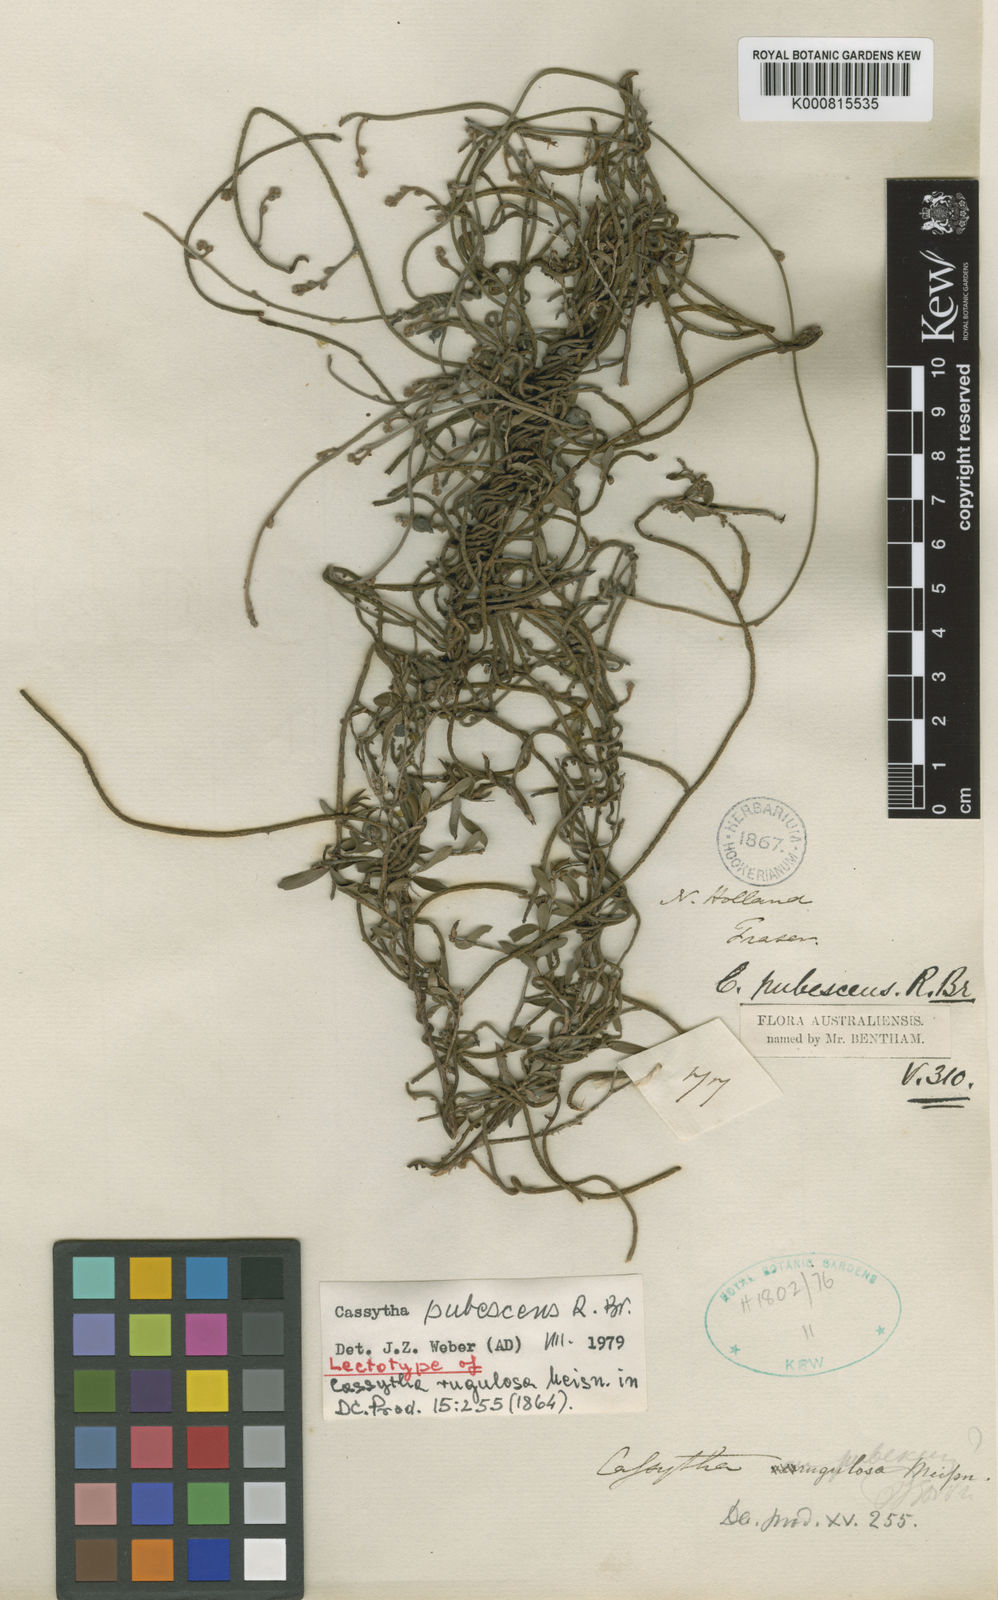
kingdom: Plantae
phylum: Tracheophyta
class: Magnoliopsida
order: Laurales
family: Lauraceae
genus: Cassytha
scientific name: Cassytha pubescens
